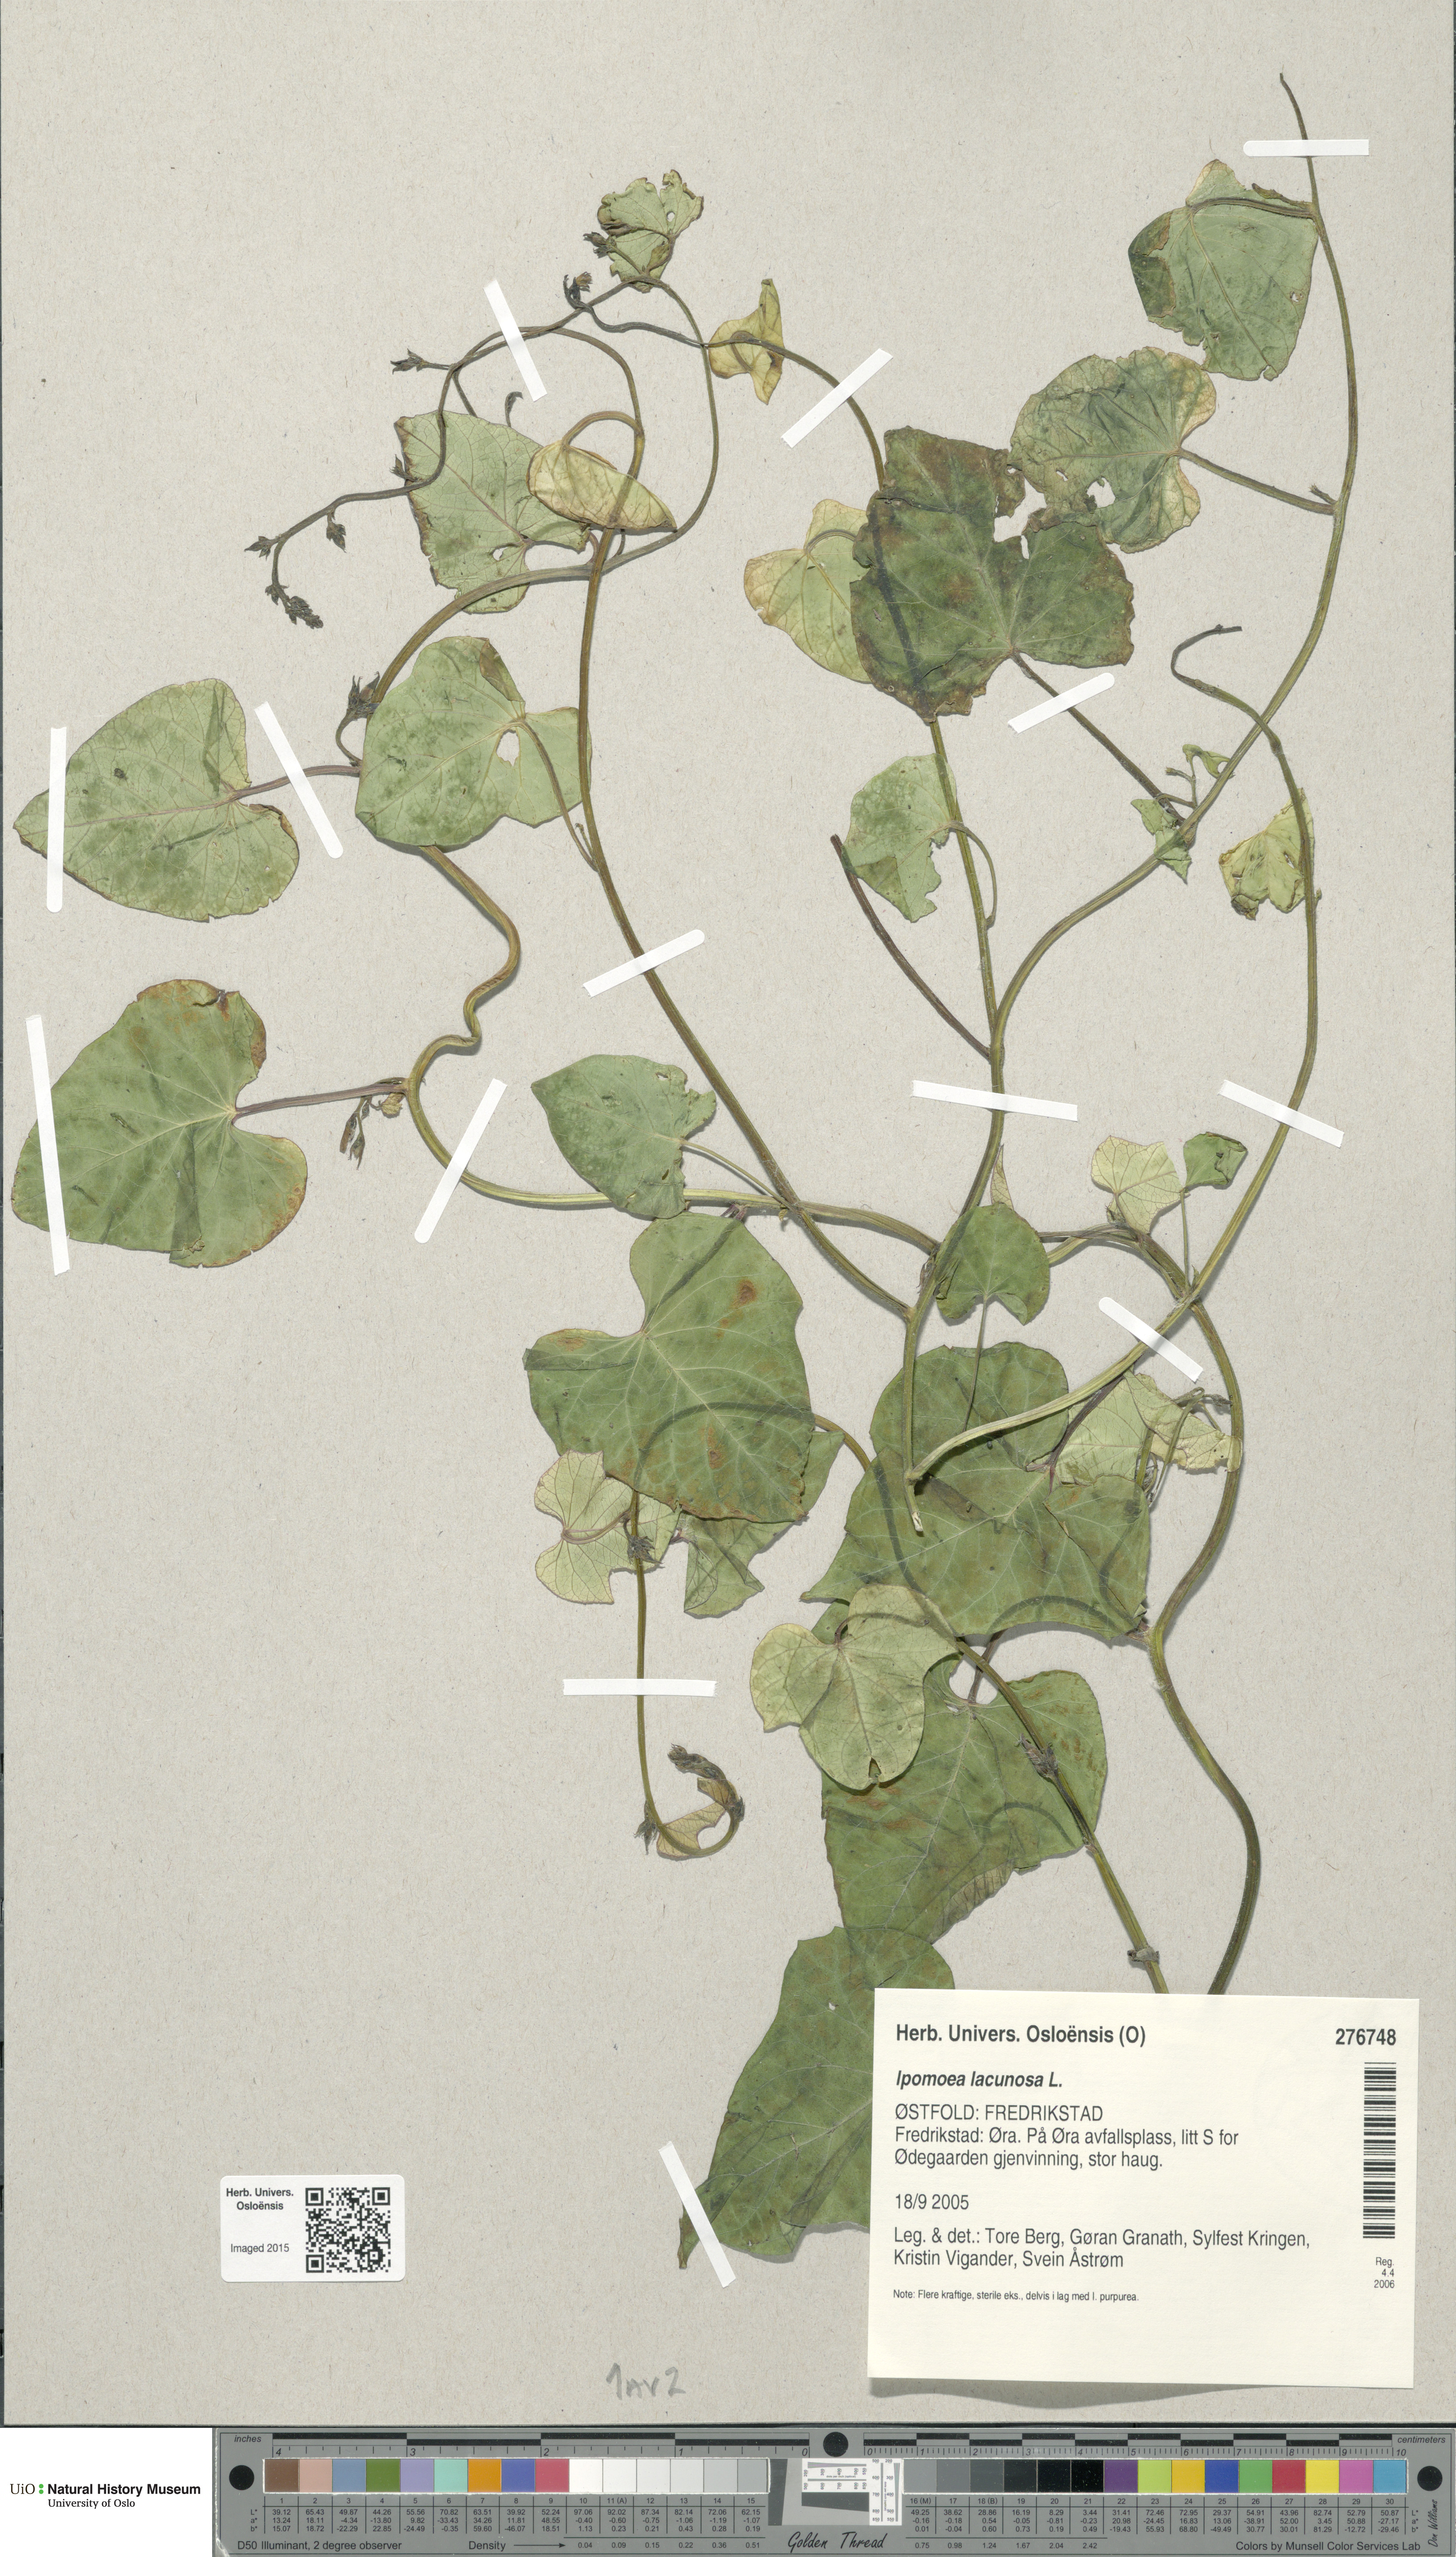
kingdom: Plantae
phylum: Tracheophyta
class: Magnoliopsida
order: Solanales
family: Convolvulaceae
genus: Ipomoea
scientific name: Ipomoea lacunosa
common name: White morning-glory
